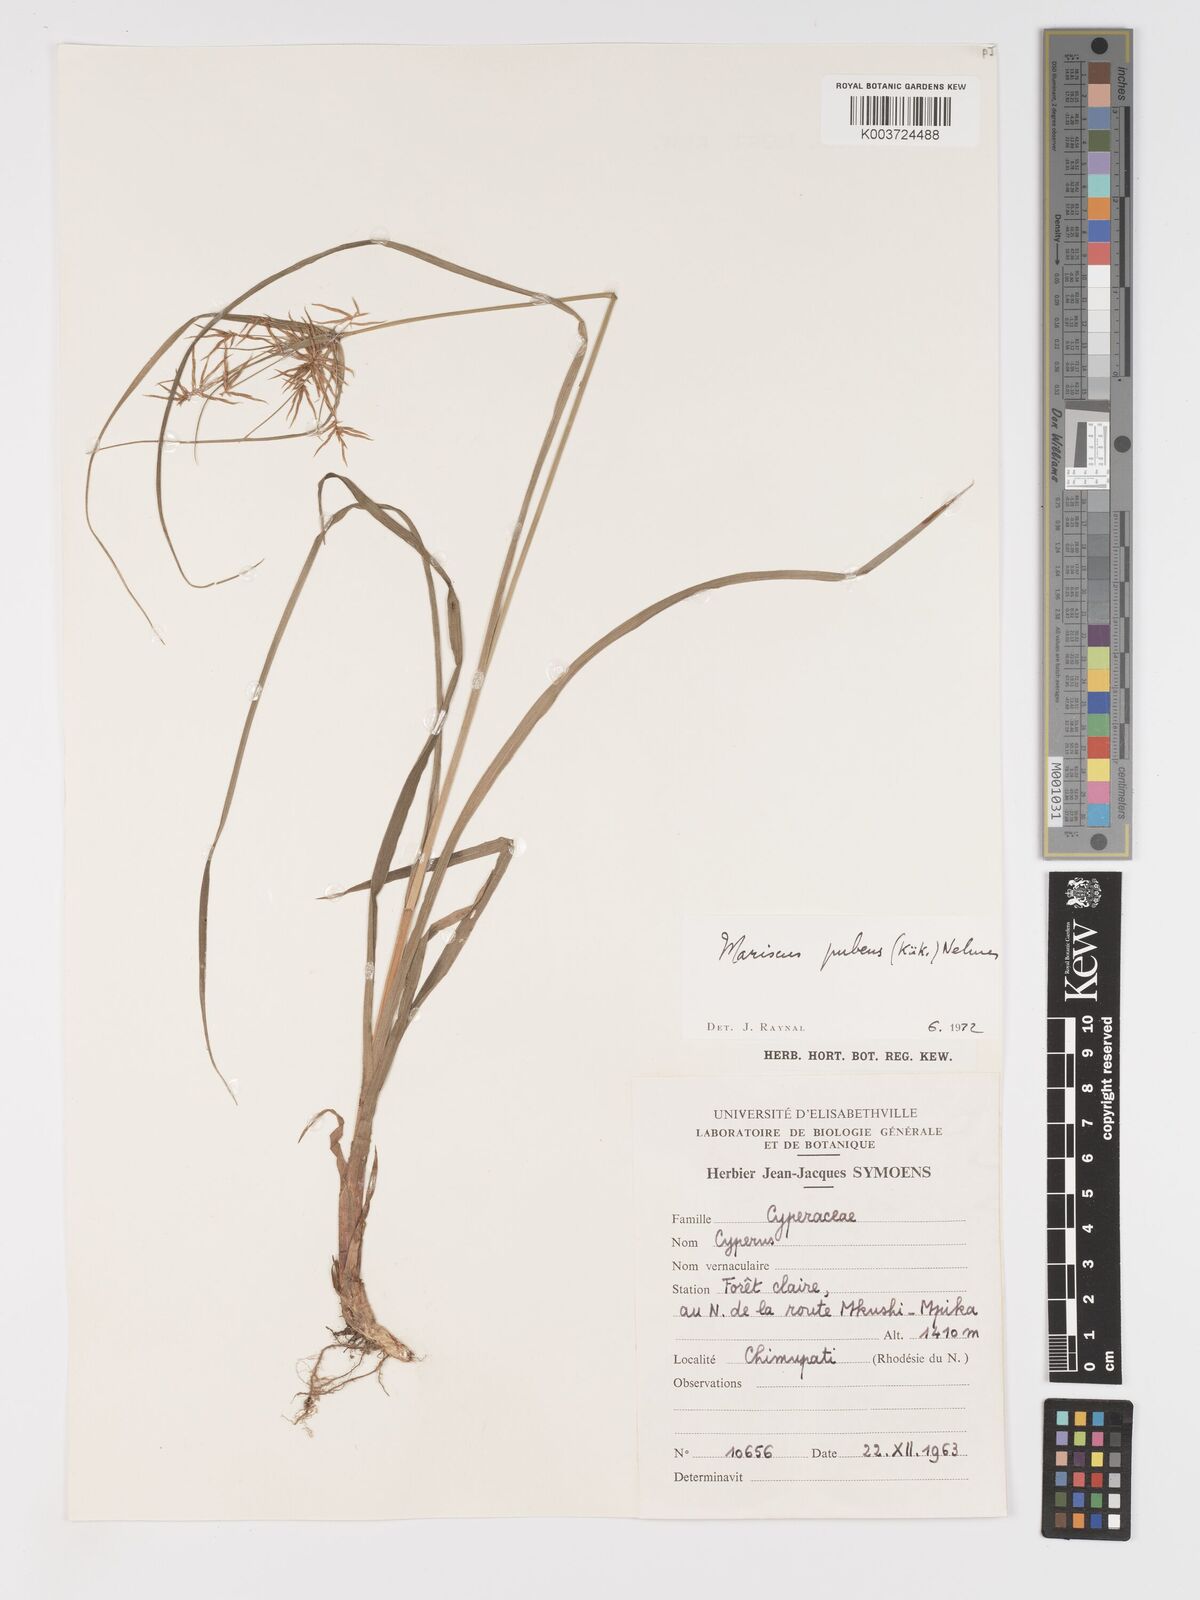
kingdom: Plantae
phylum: Tracheophyta
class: Liliopsida
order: Poales
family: Cyperaceae
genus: Cyperus
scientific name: Cyperus pubens
